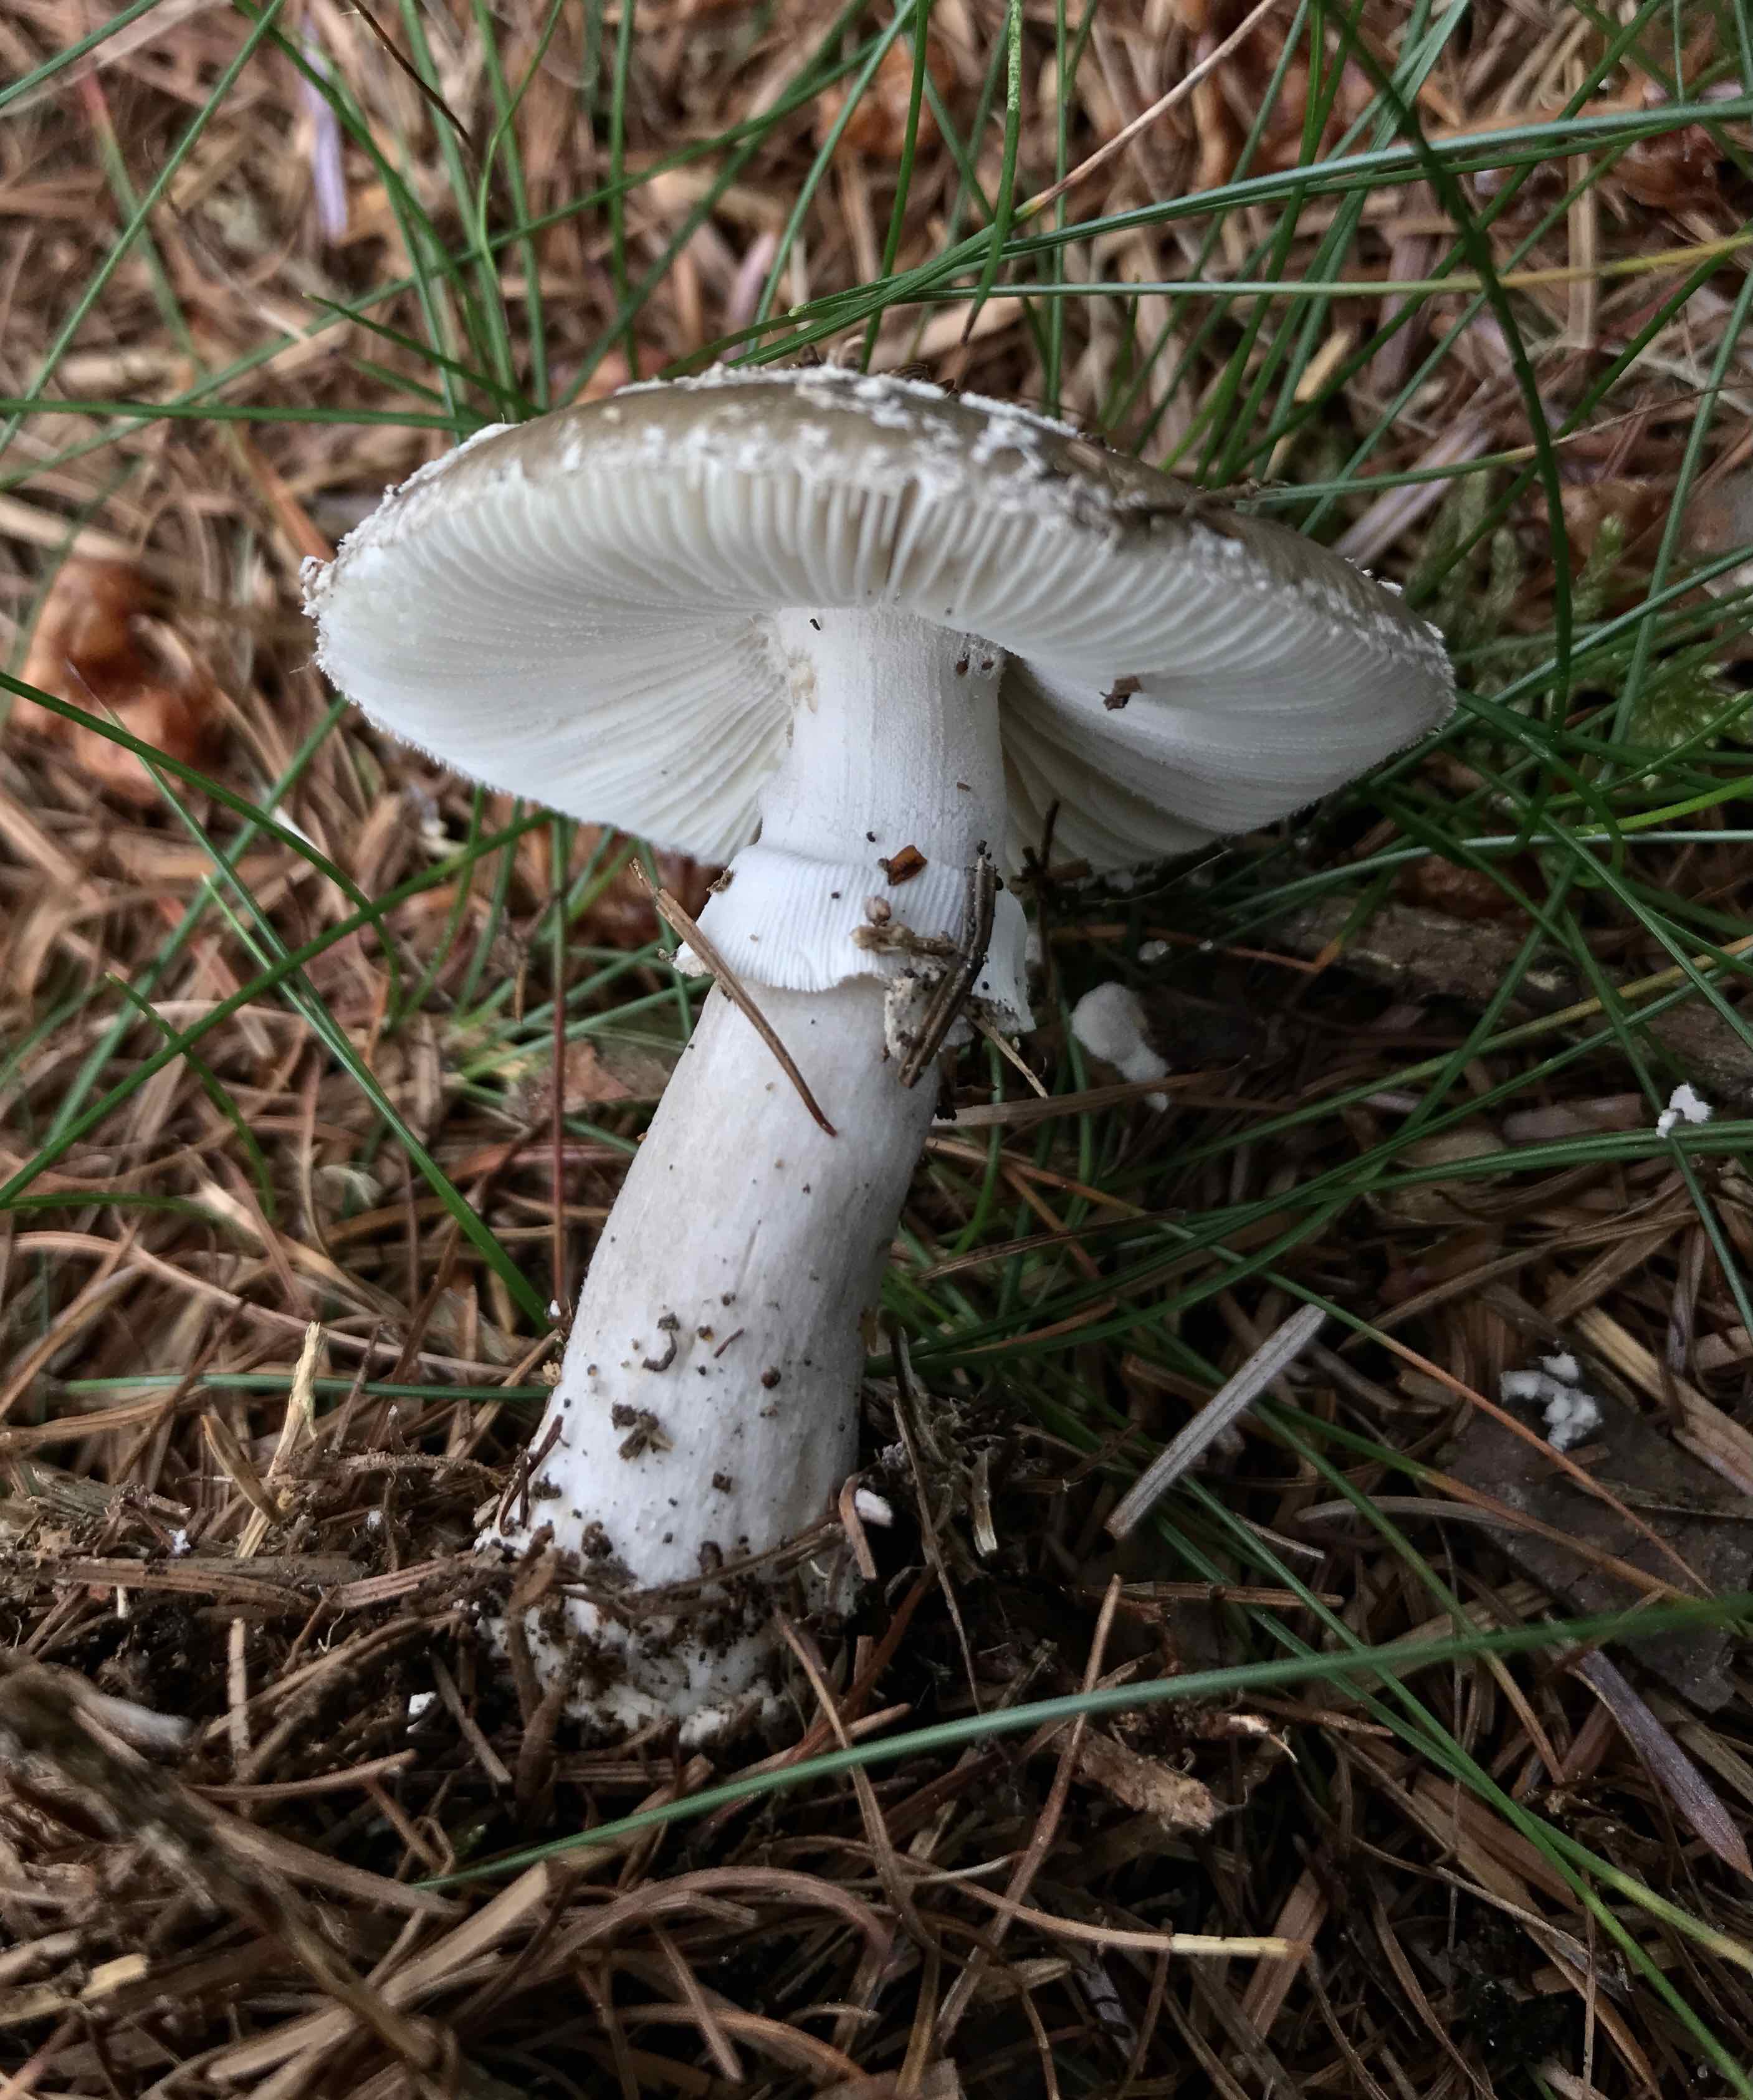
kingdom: Fungi
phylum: Basidiomycota
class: Agaricomycetes
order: Agaricales
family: Amanitaceae
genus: Amanita
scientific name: Amanita
